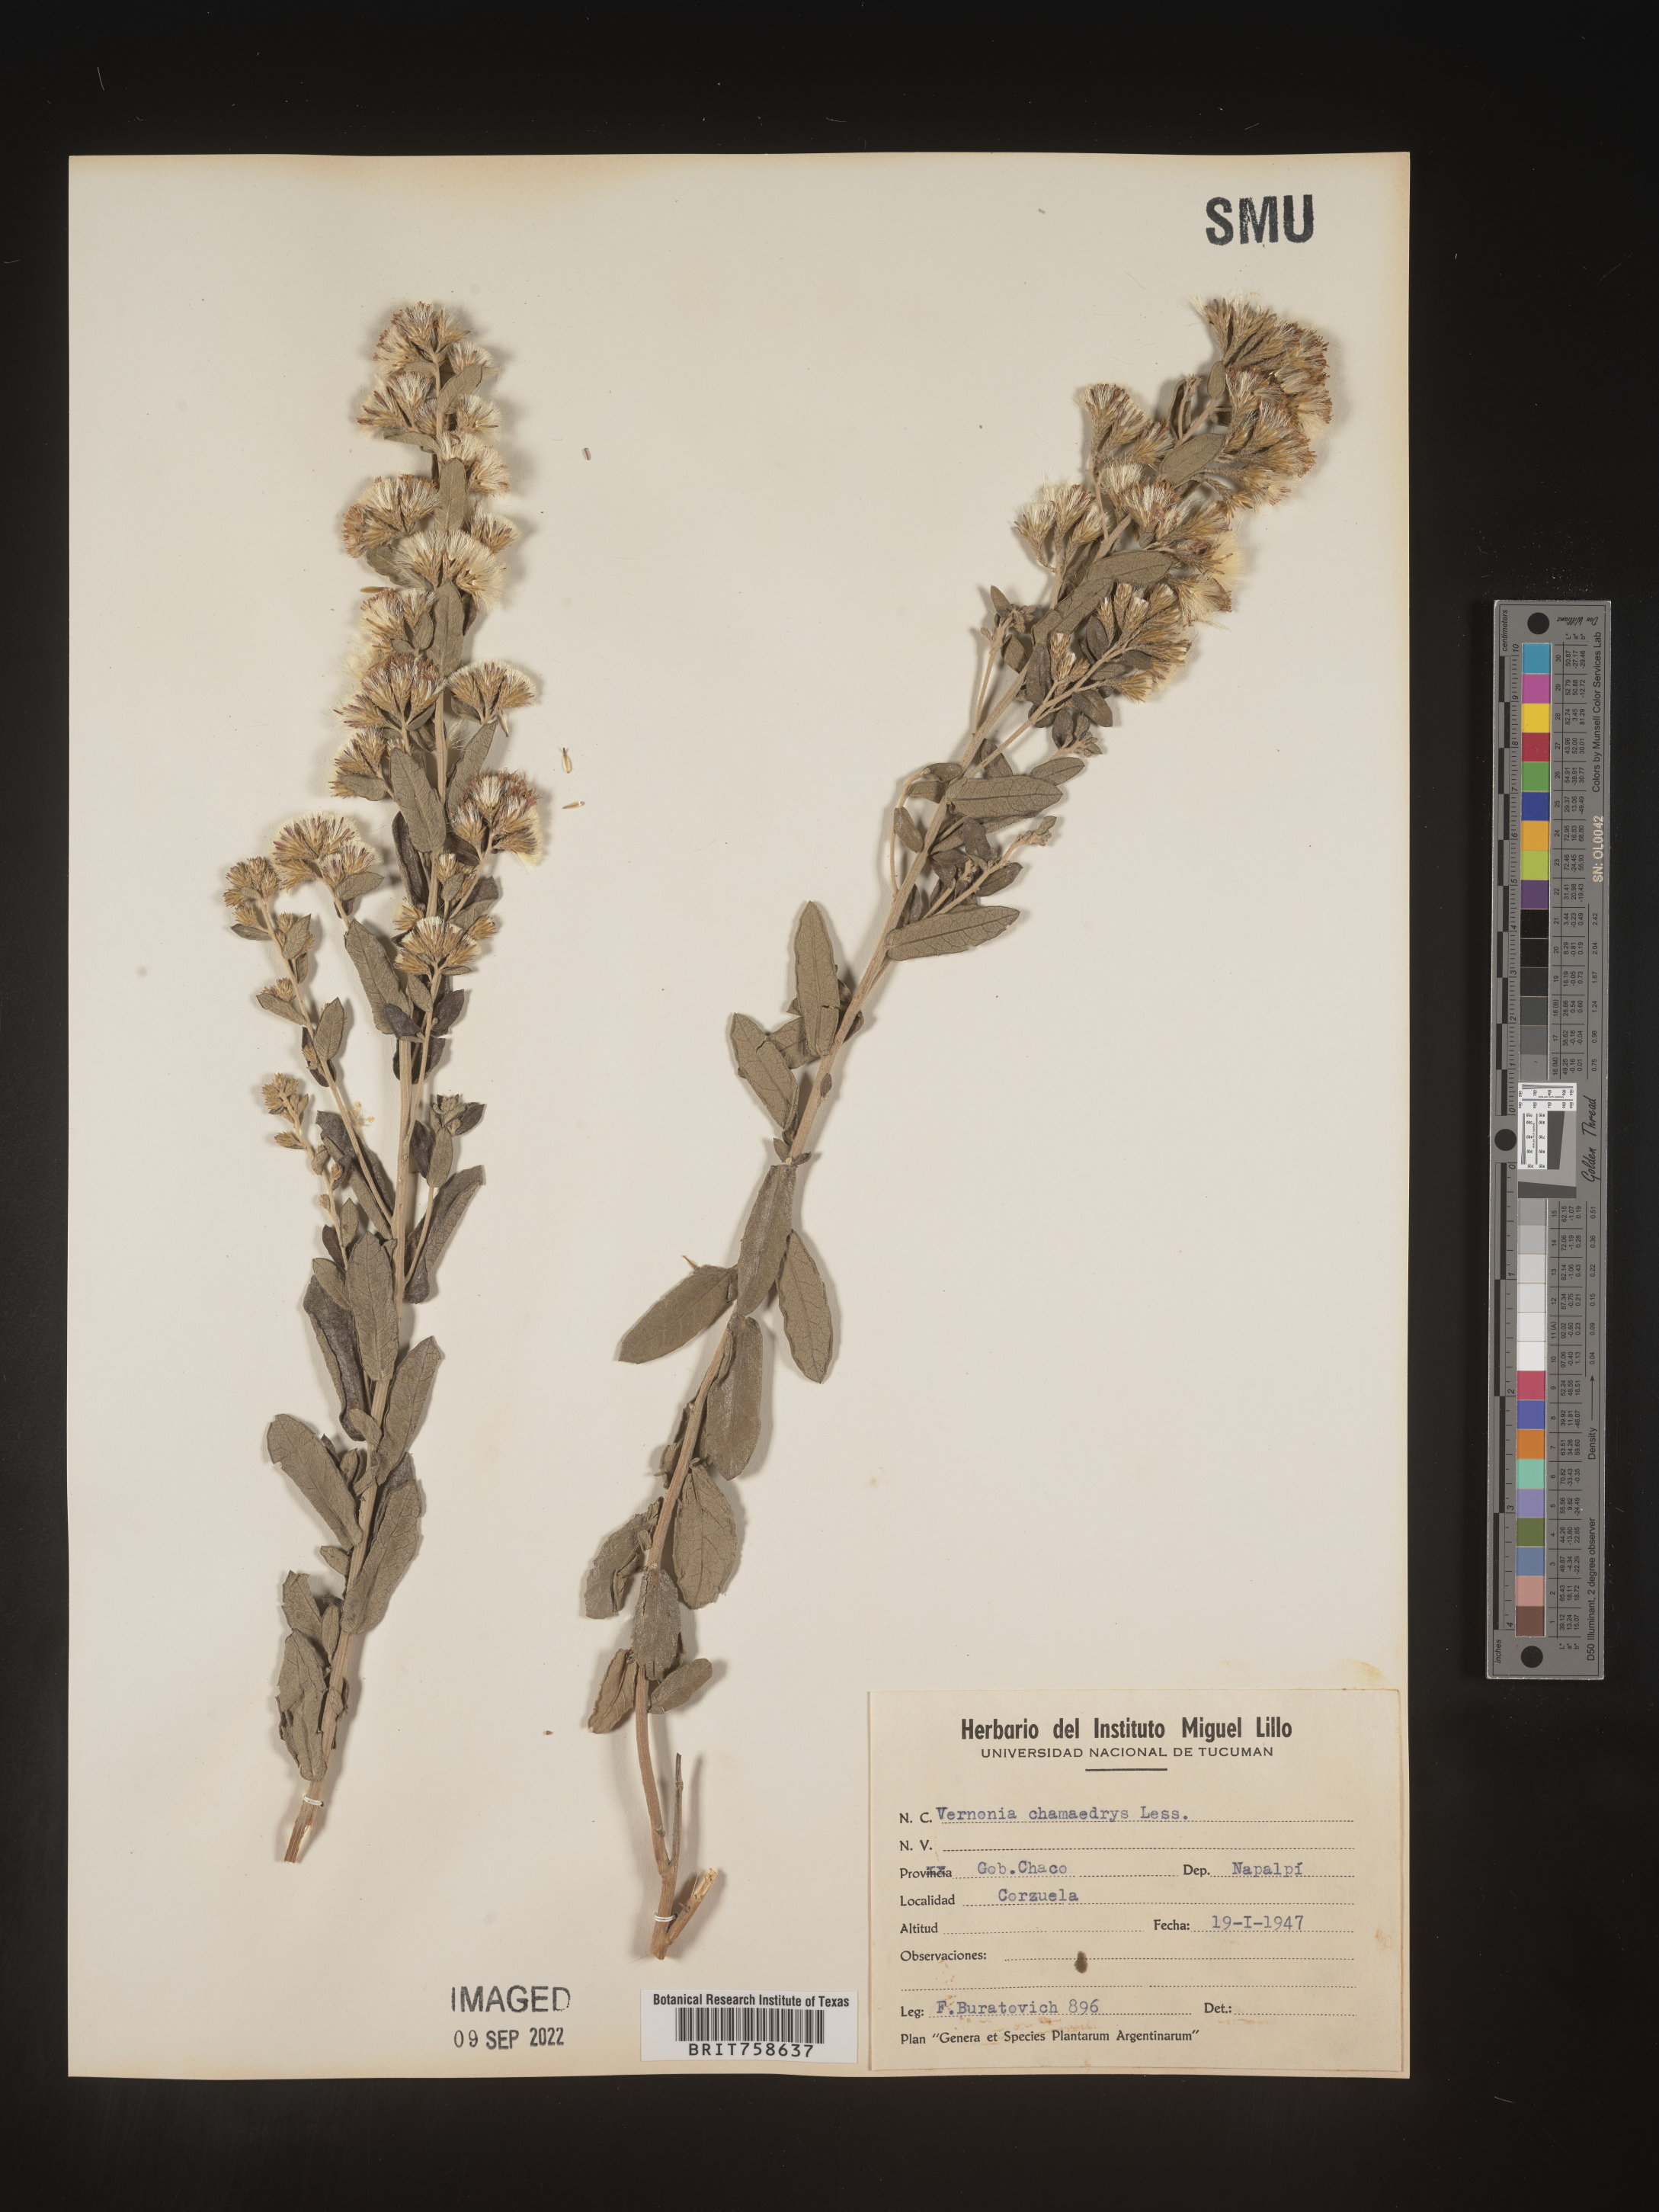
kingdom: Plantae
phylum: Tracheophyta
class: Magnoliopsida
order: Asterales
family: Asteraceae
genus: Vernonia
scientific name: Vernonia
